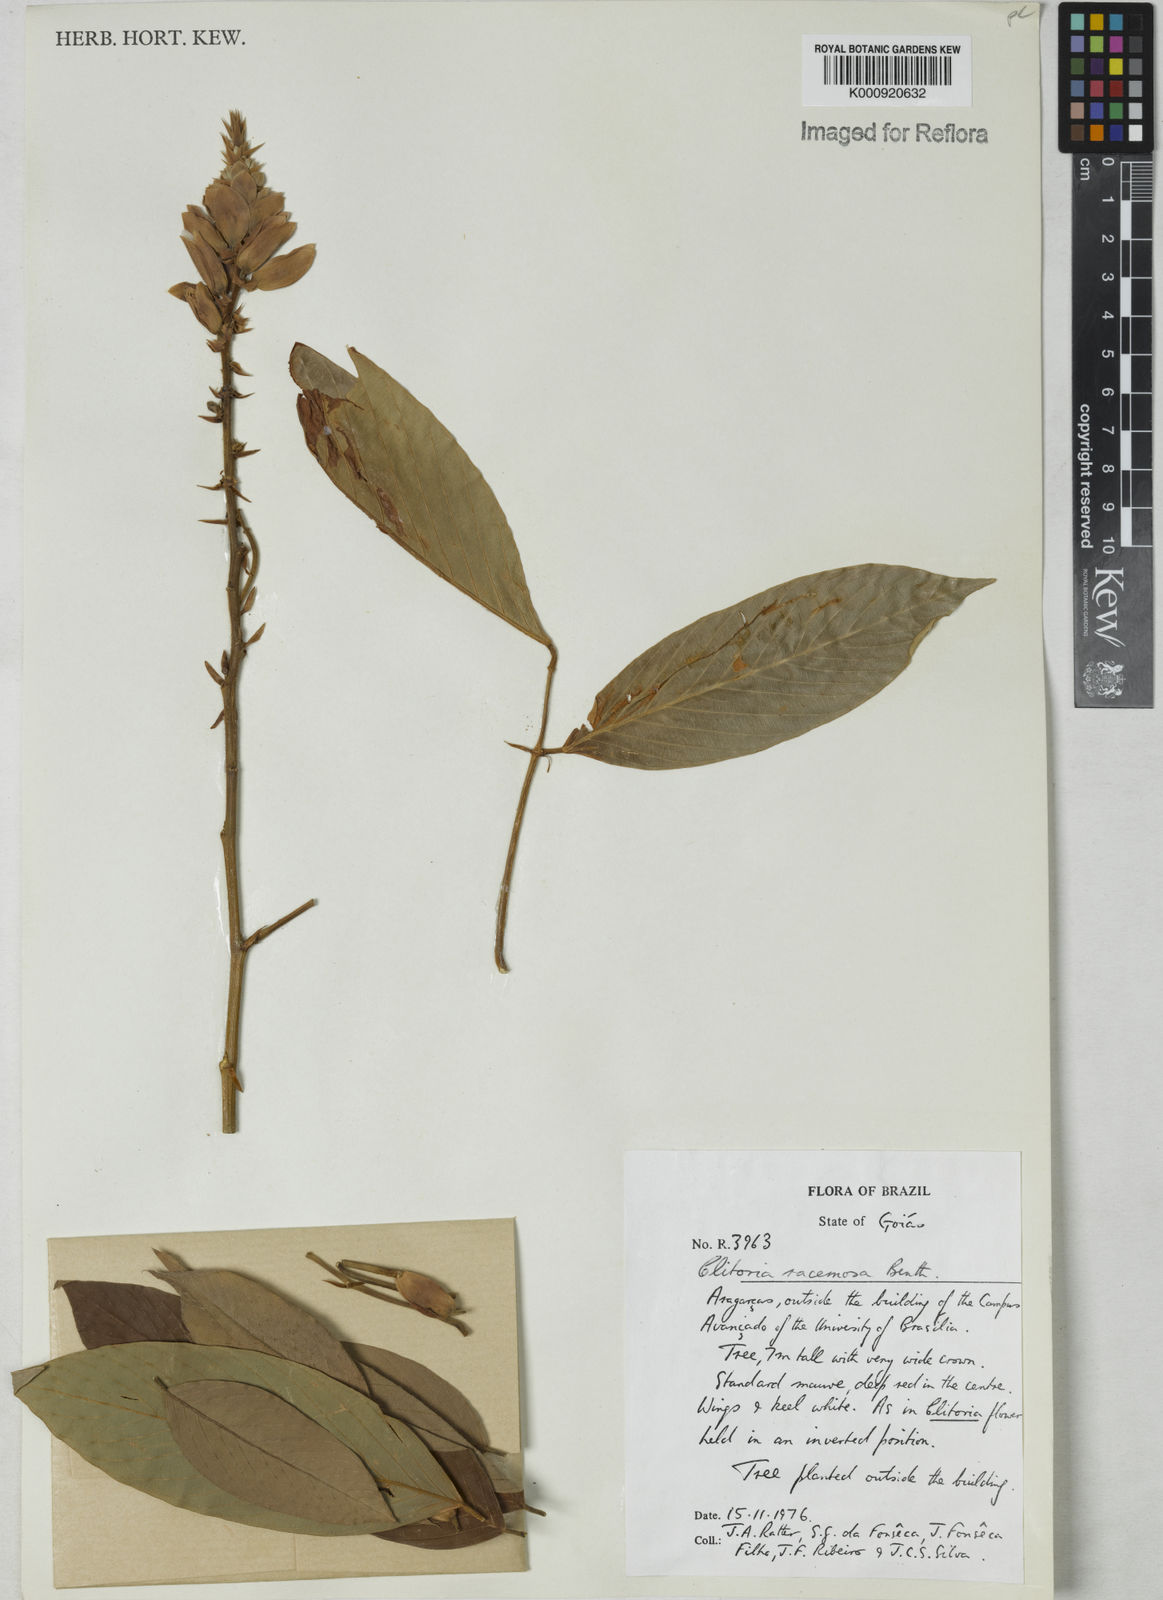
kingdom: Plantae
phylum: Tracheophyta
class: Magnoliopsida
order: Fabales
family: Fabaceae
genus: Clitoria
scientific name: Clitoria fairchildiana
